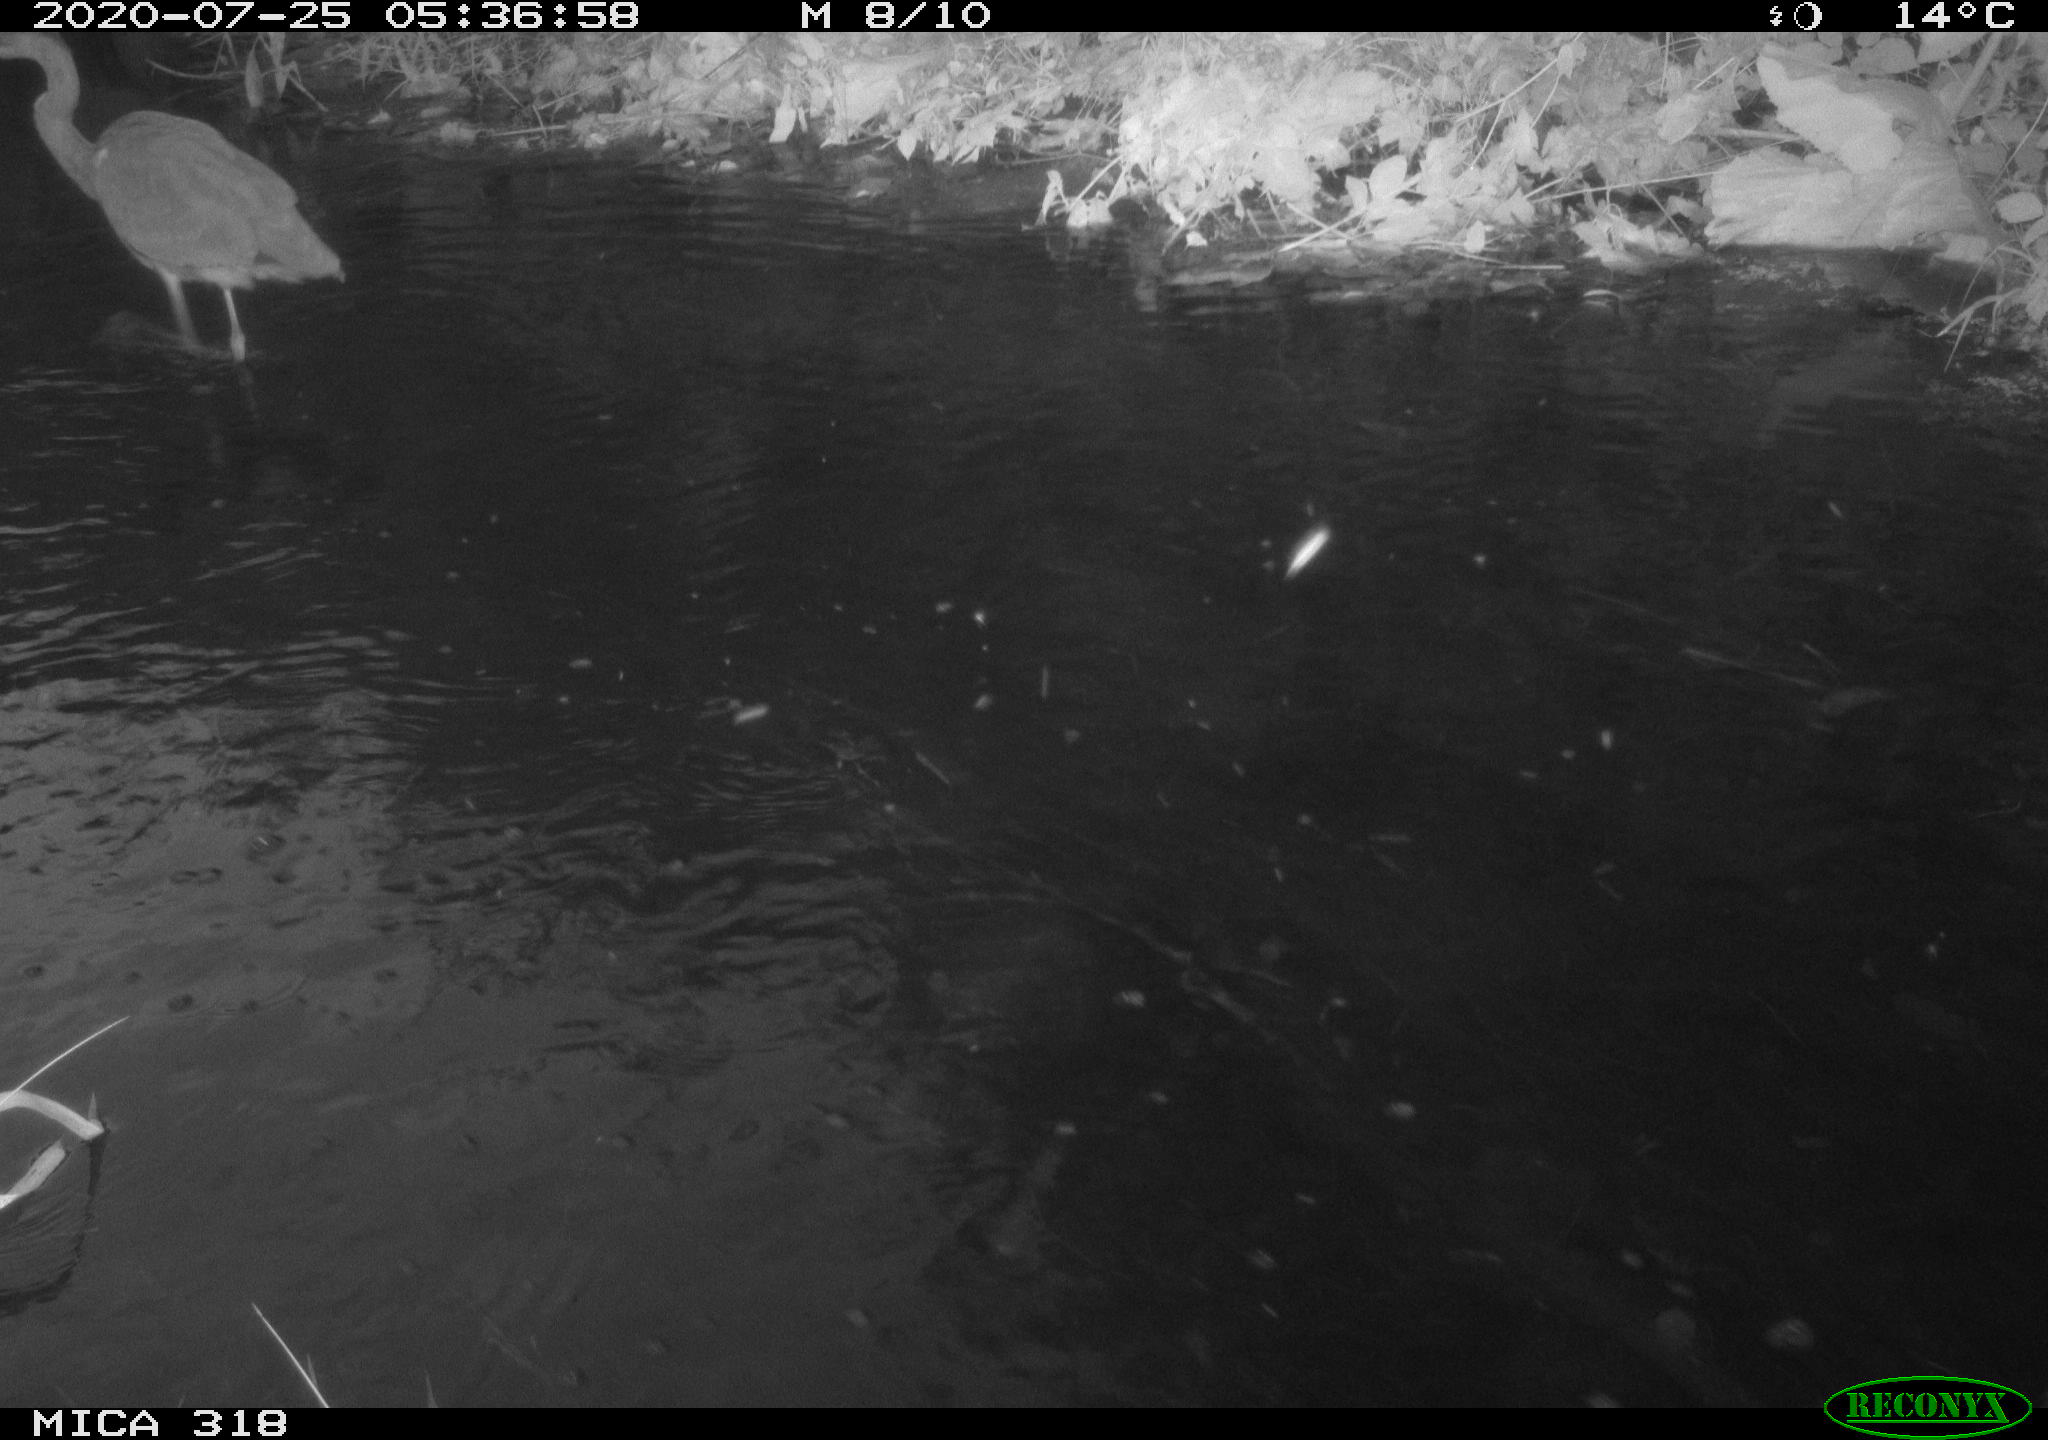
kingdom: Animalia
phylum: Chordata
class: Aves
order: Pelecaniformes
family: Ardeidae
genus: Ardea
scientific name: Ardea cinerea
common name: Grey heron
